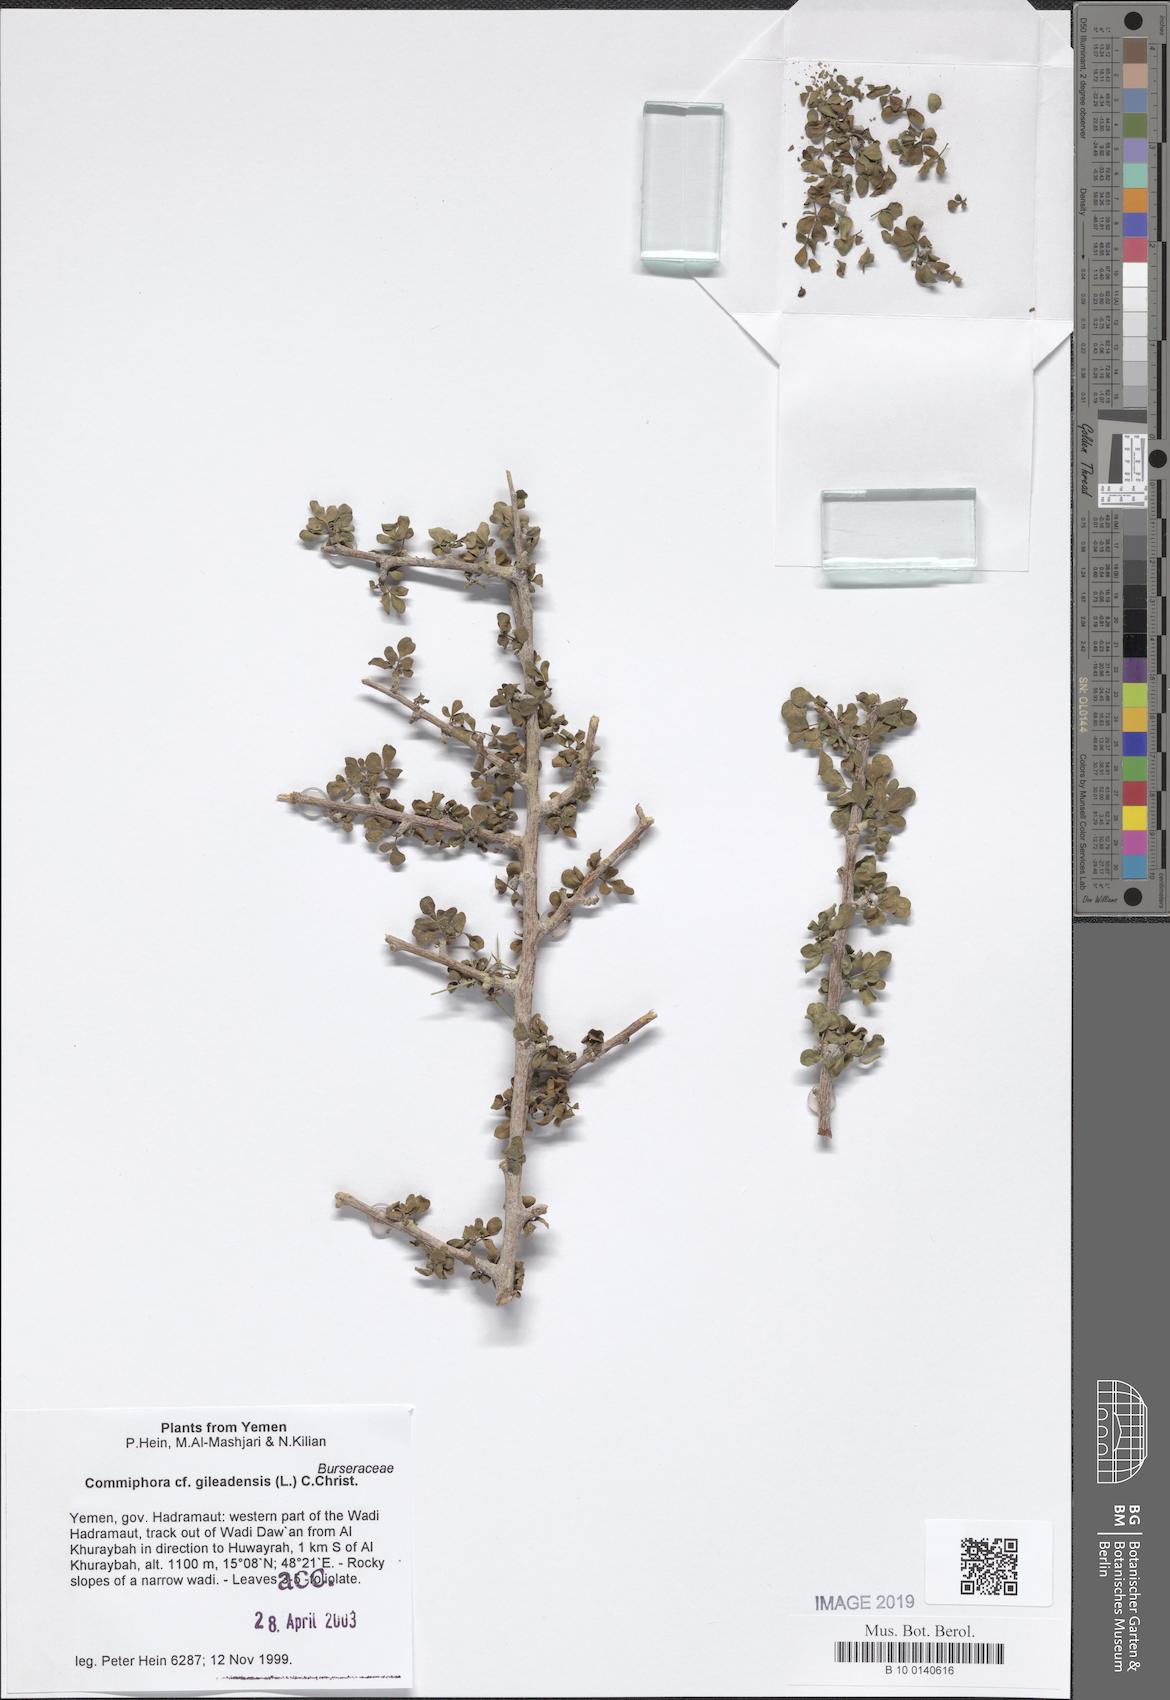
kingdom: Plantae
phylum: Tracheophyta
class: Magnoliopsida
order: Sapindales
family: Burseraceae
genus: Commiphora
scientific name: Commiphora gileadensis
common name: Balm-of-gilead
